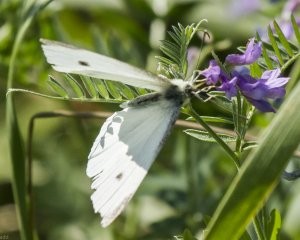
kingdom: Animalia
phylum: Arthropoda
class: Insecta
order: Lepidoptera
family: Pieridae
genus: Pieris
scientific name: Pieris rapae
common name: Cabbage White
